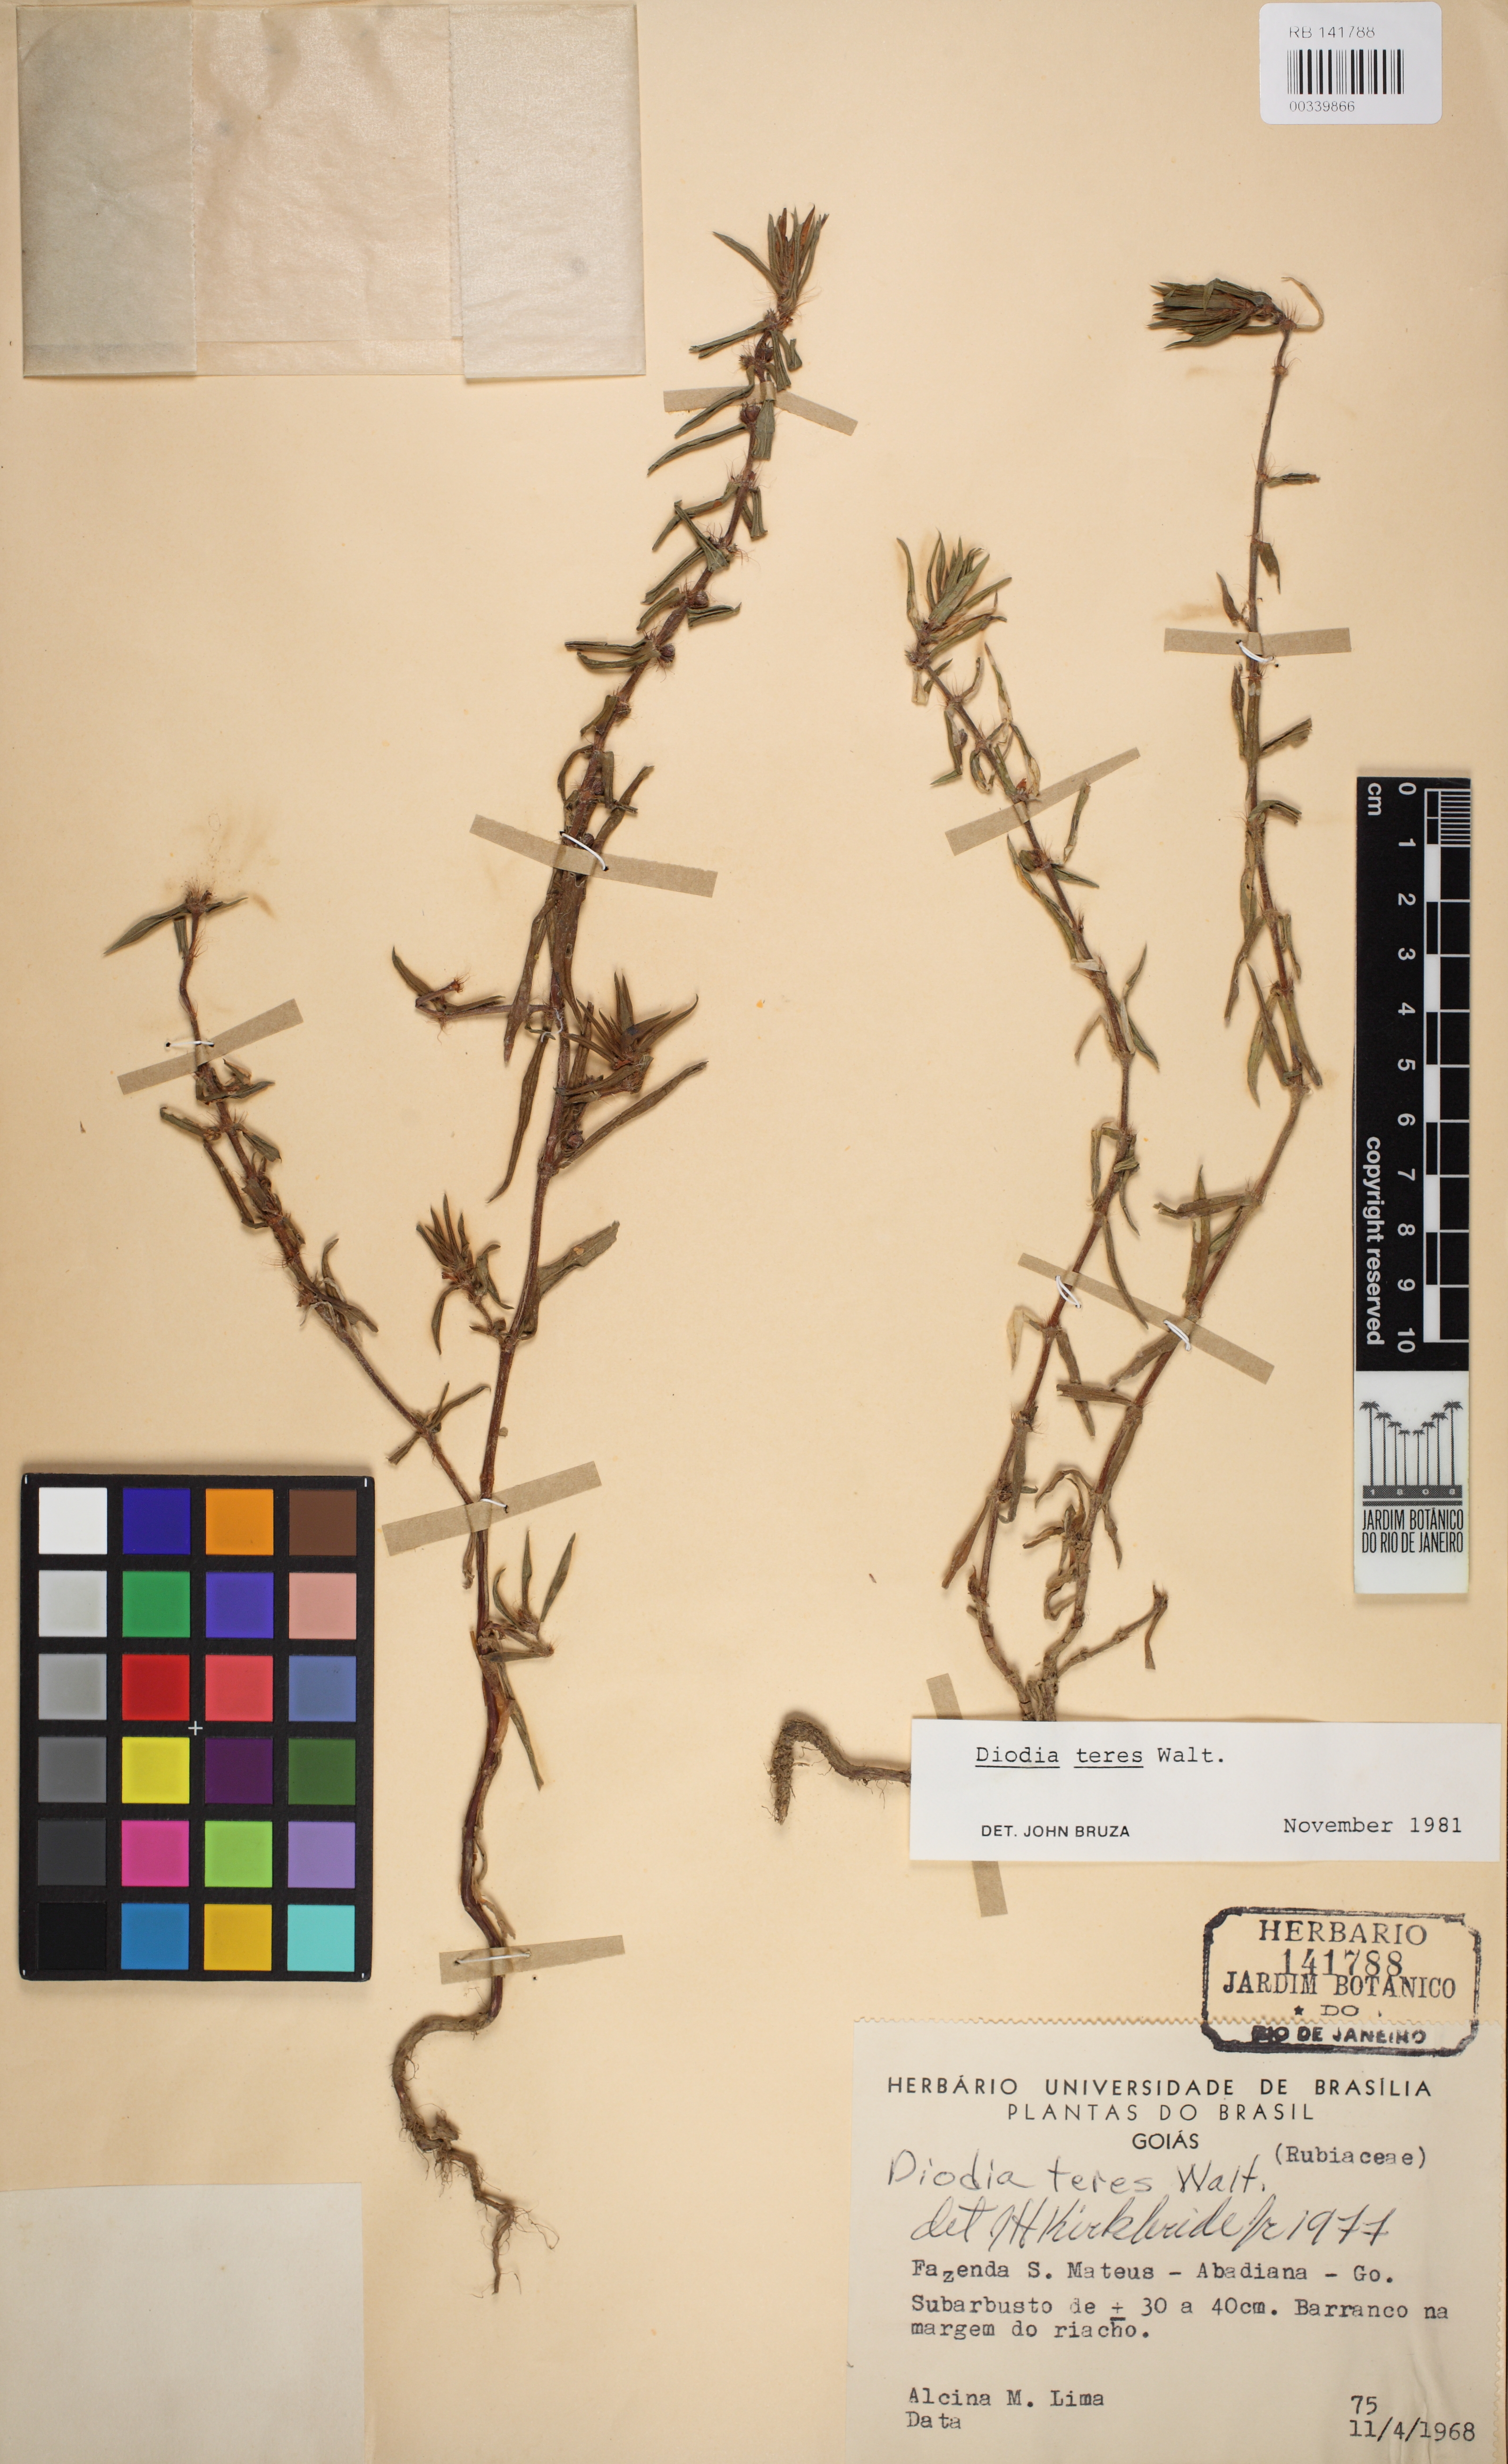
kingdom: Plantae
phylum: Tracheophyta
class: Magnoliopsida
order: Gentianales
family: Rubiaceae
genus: Hexasepalum
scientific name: Hexasepalum teres
